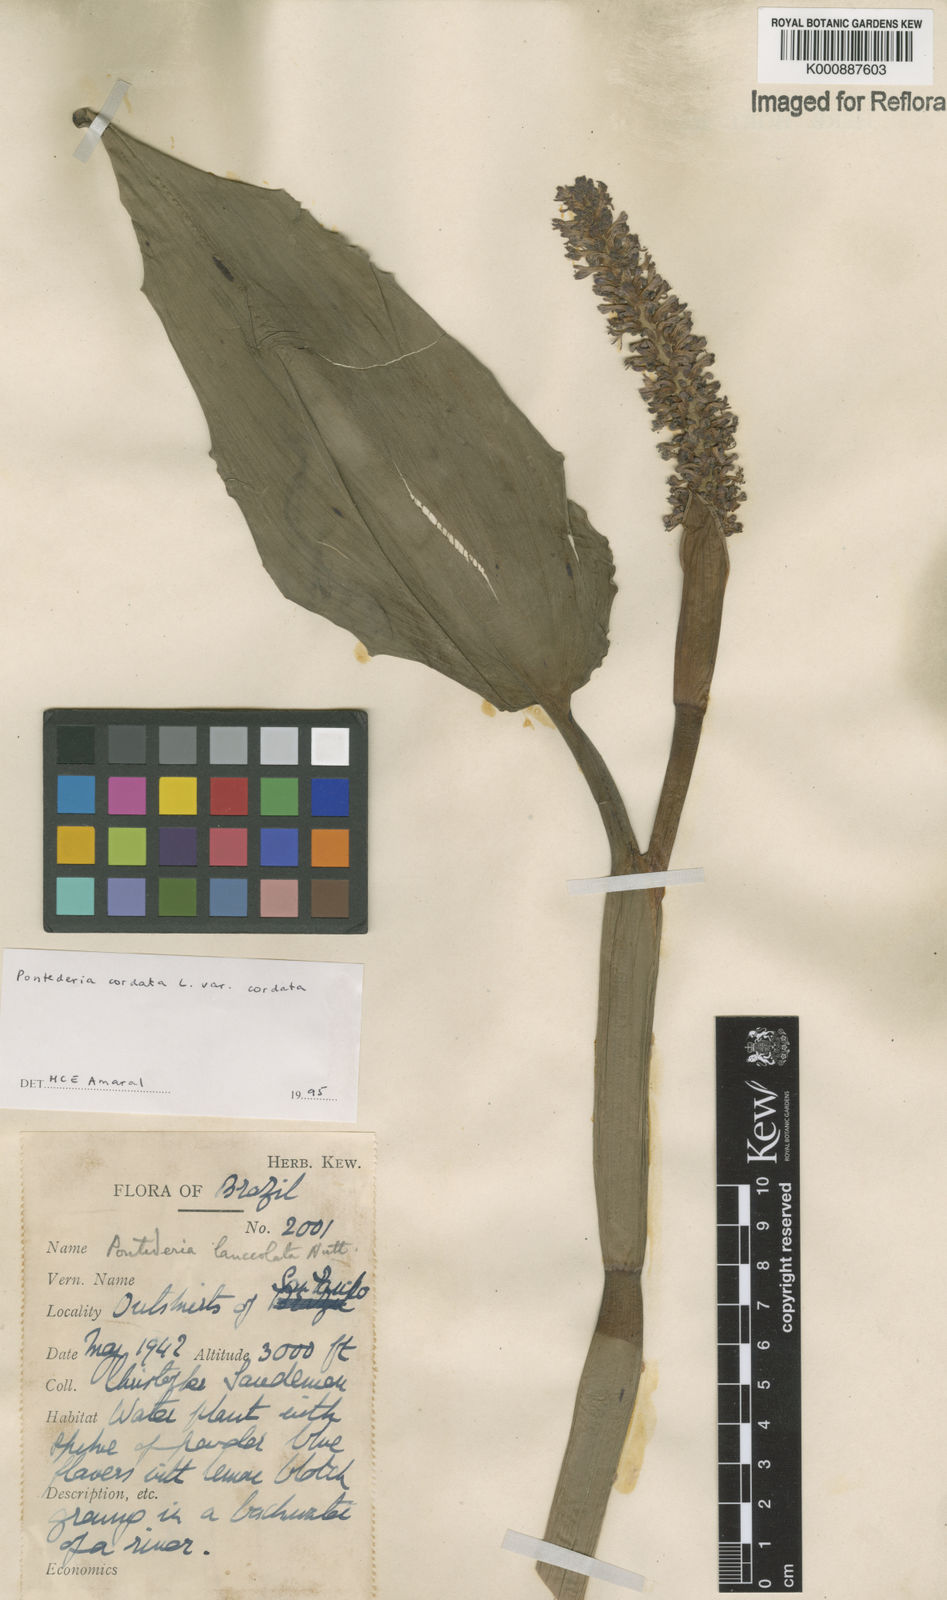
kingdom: Plantae
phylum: Tracheophyta
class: Liliopsida
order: Commelinales
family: Pontederiaceae
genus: Pontederia
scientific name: Pontederia cordata
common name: Pickerelweed
